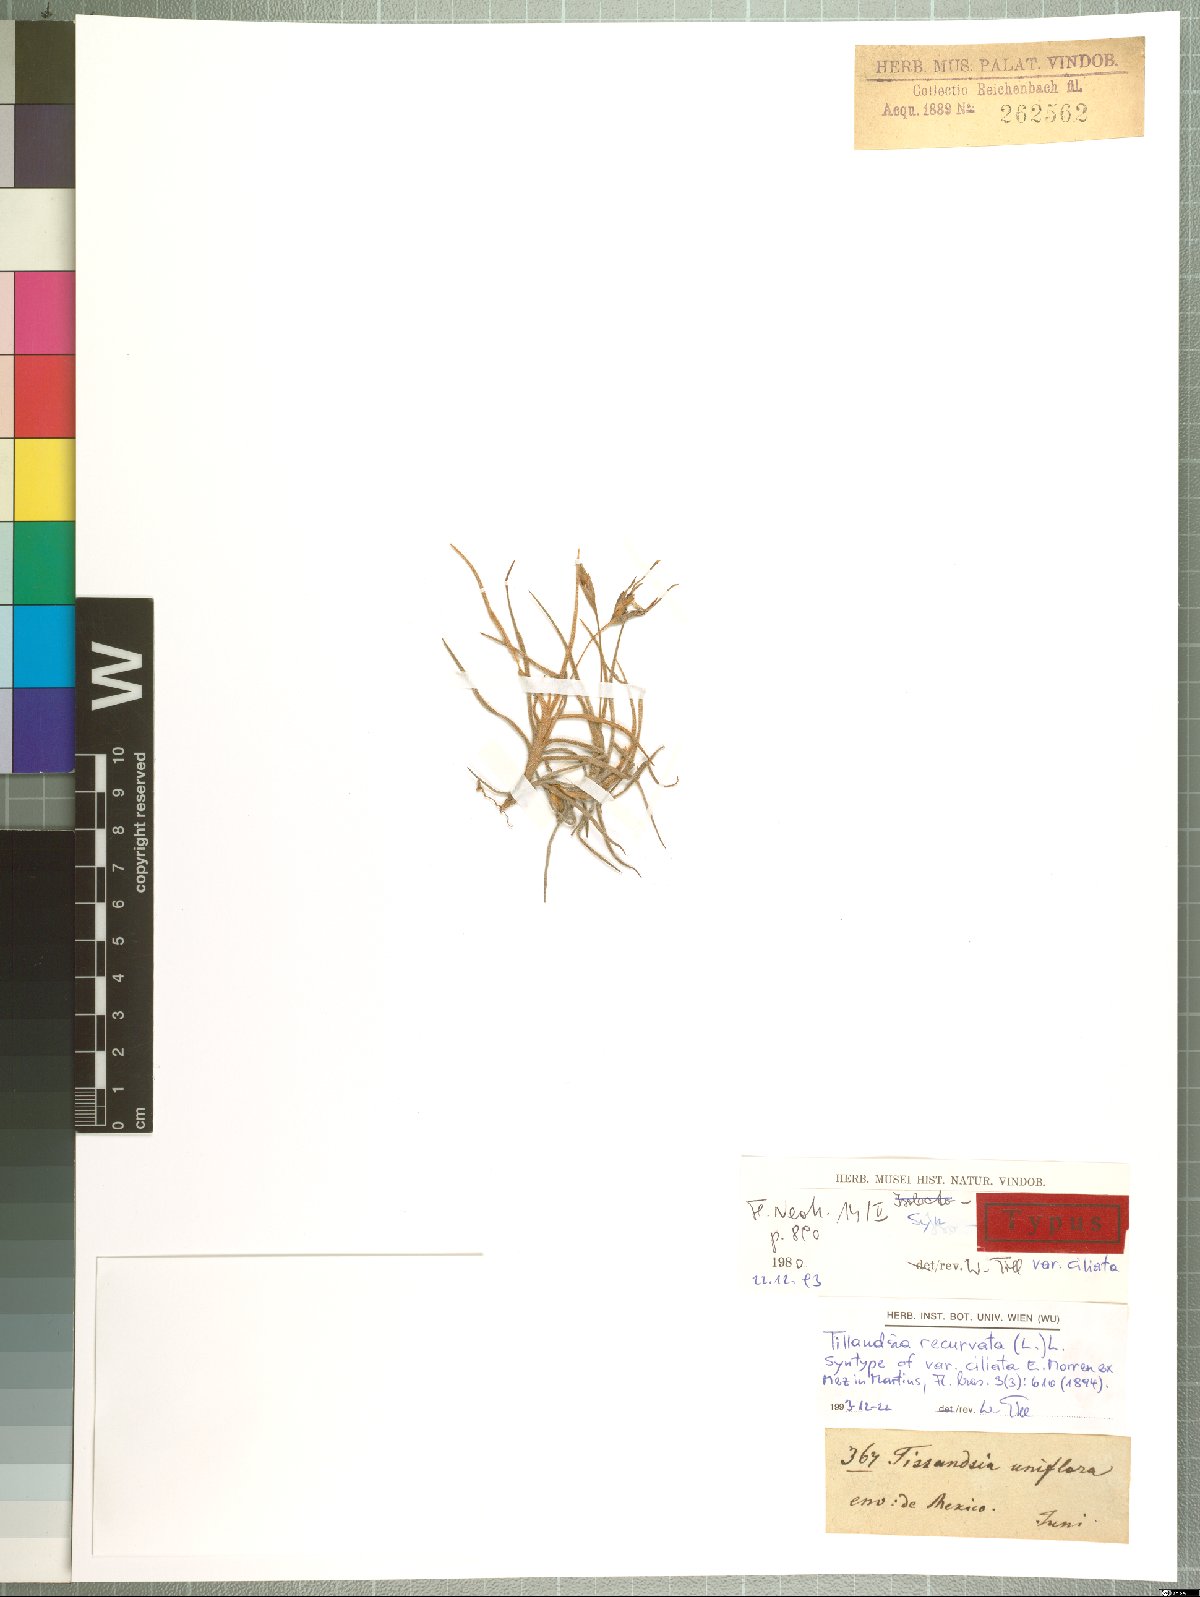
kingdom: Plantae
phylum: Tracheophyta
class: Liliopsida
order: Poales
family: Bromeliaceae
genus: Tillandsia
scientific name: Tillandsia recurvata
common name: Small ballmoss
